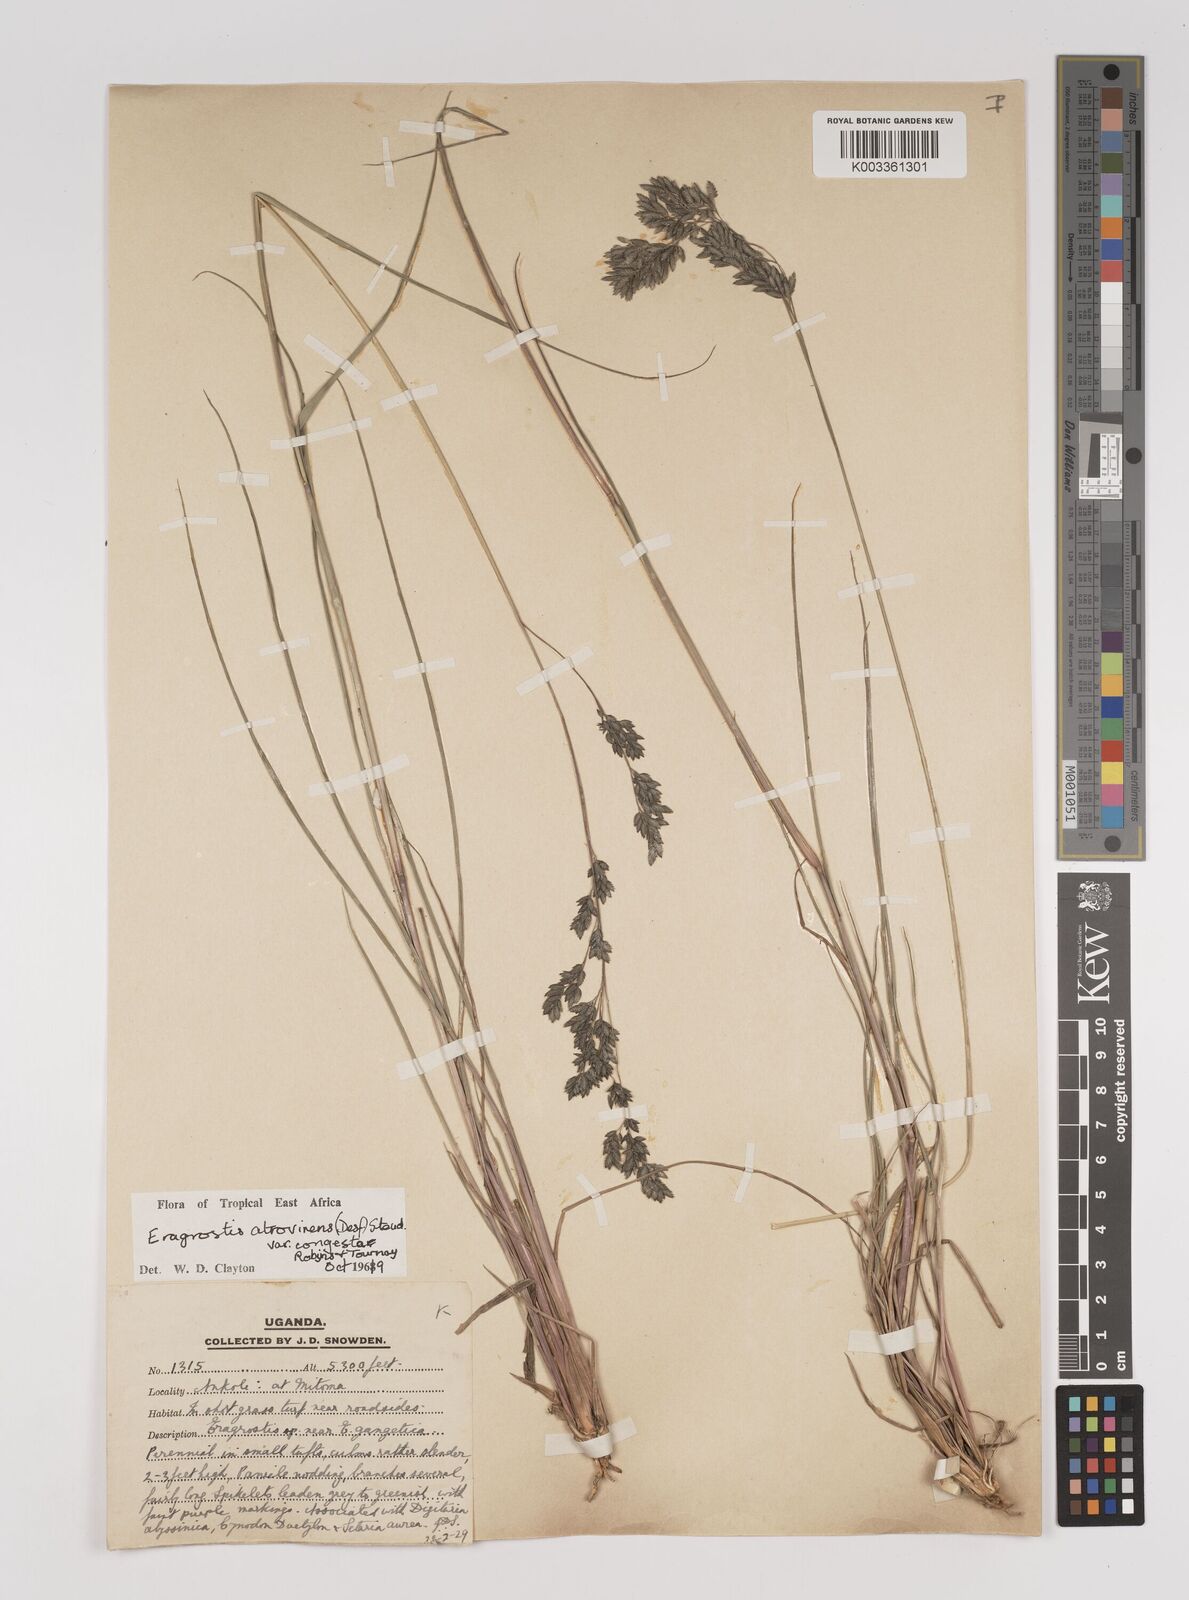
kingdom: Plantae
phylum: Tracheophyta
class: Liliopsida
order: Poales
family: Poaceae
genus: Eragrostis
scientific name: Eragrostis botryodes
